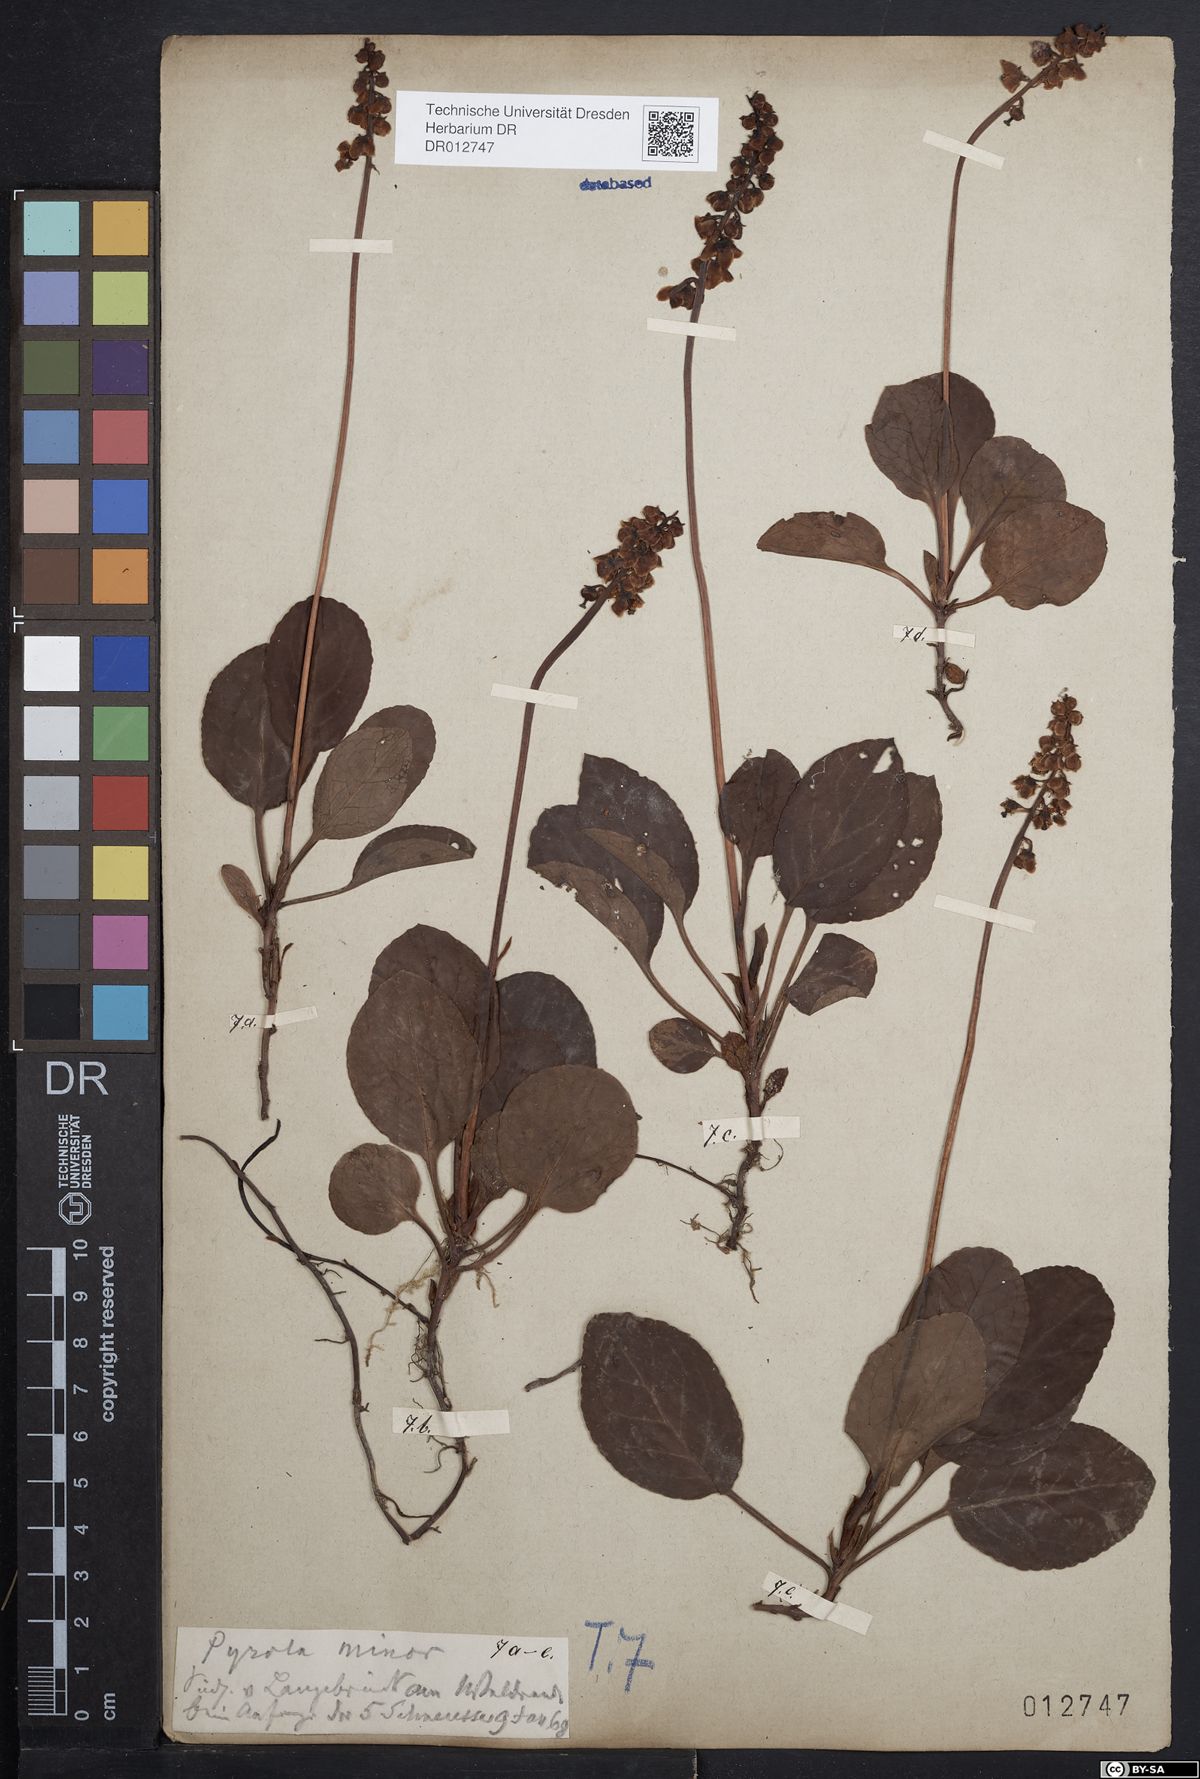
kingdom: Plantae
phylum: Tracheophyta
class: Magnoliopsida
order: Ericales
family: Ericaceae
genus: Pyrola
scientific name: Pyrola minor
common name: Common wintergreen
